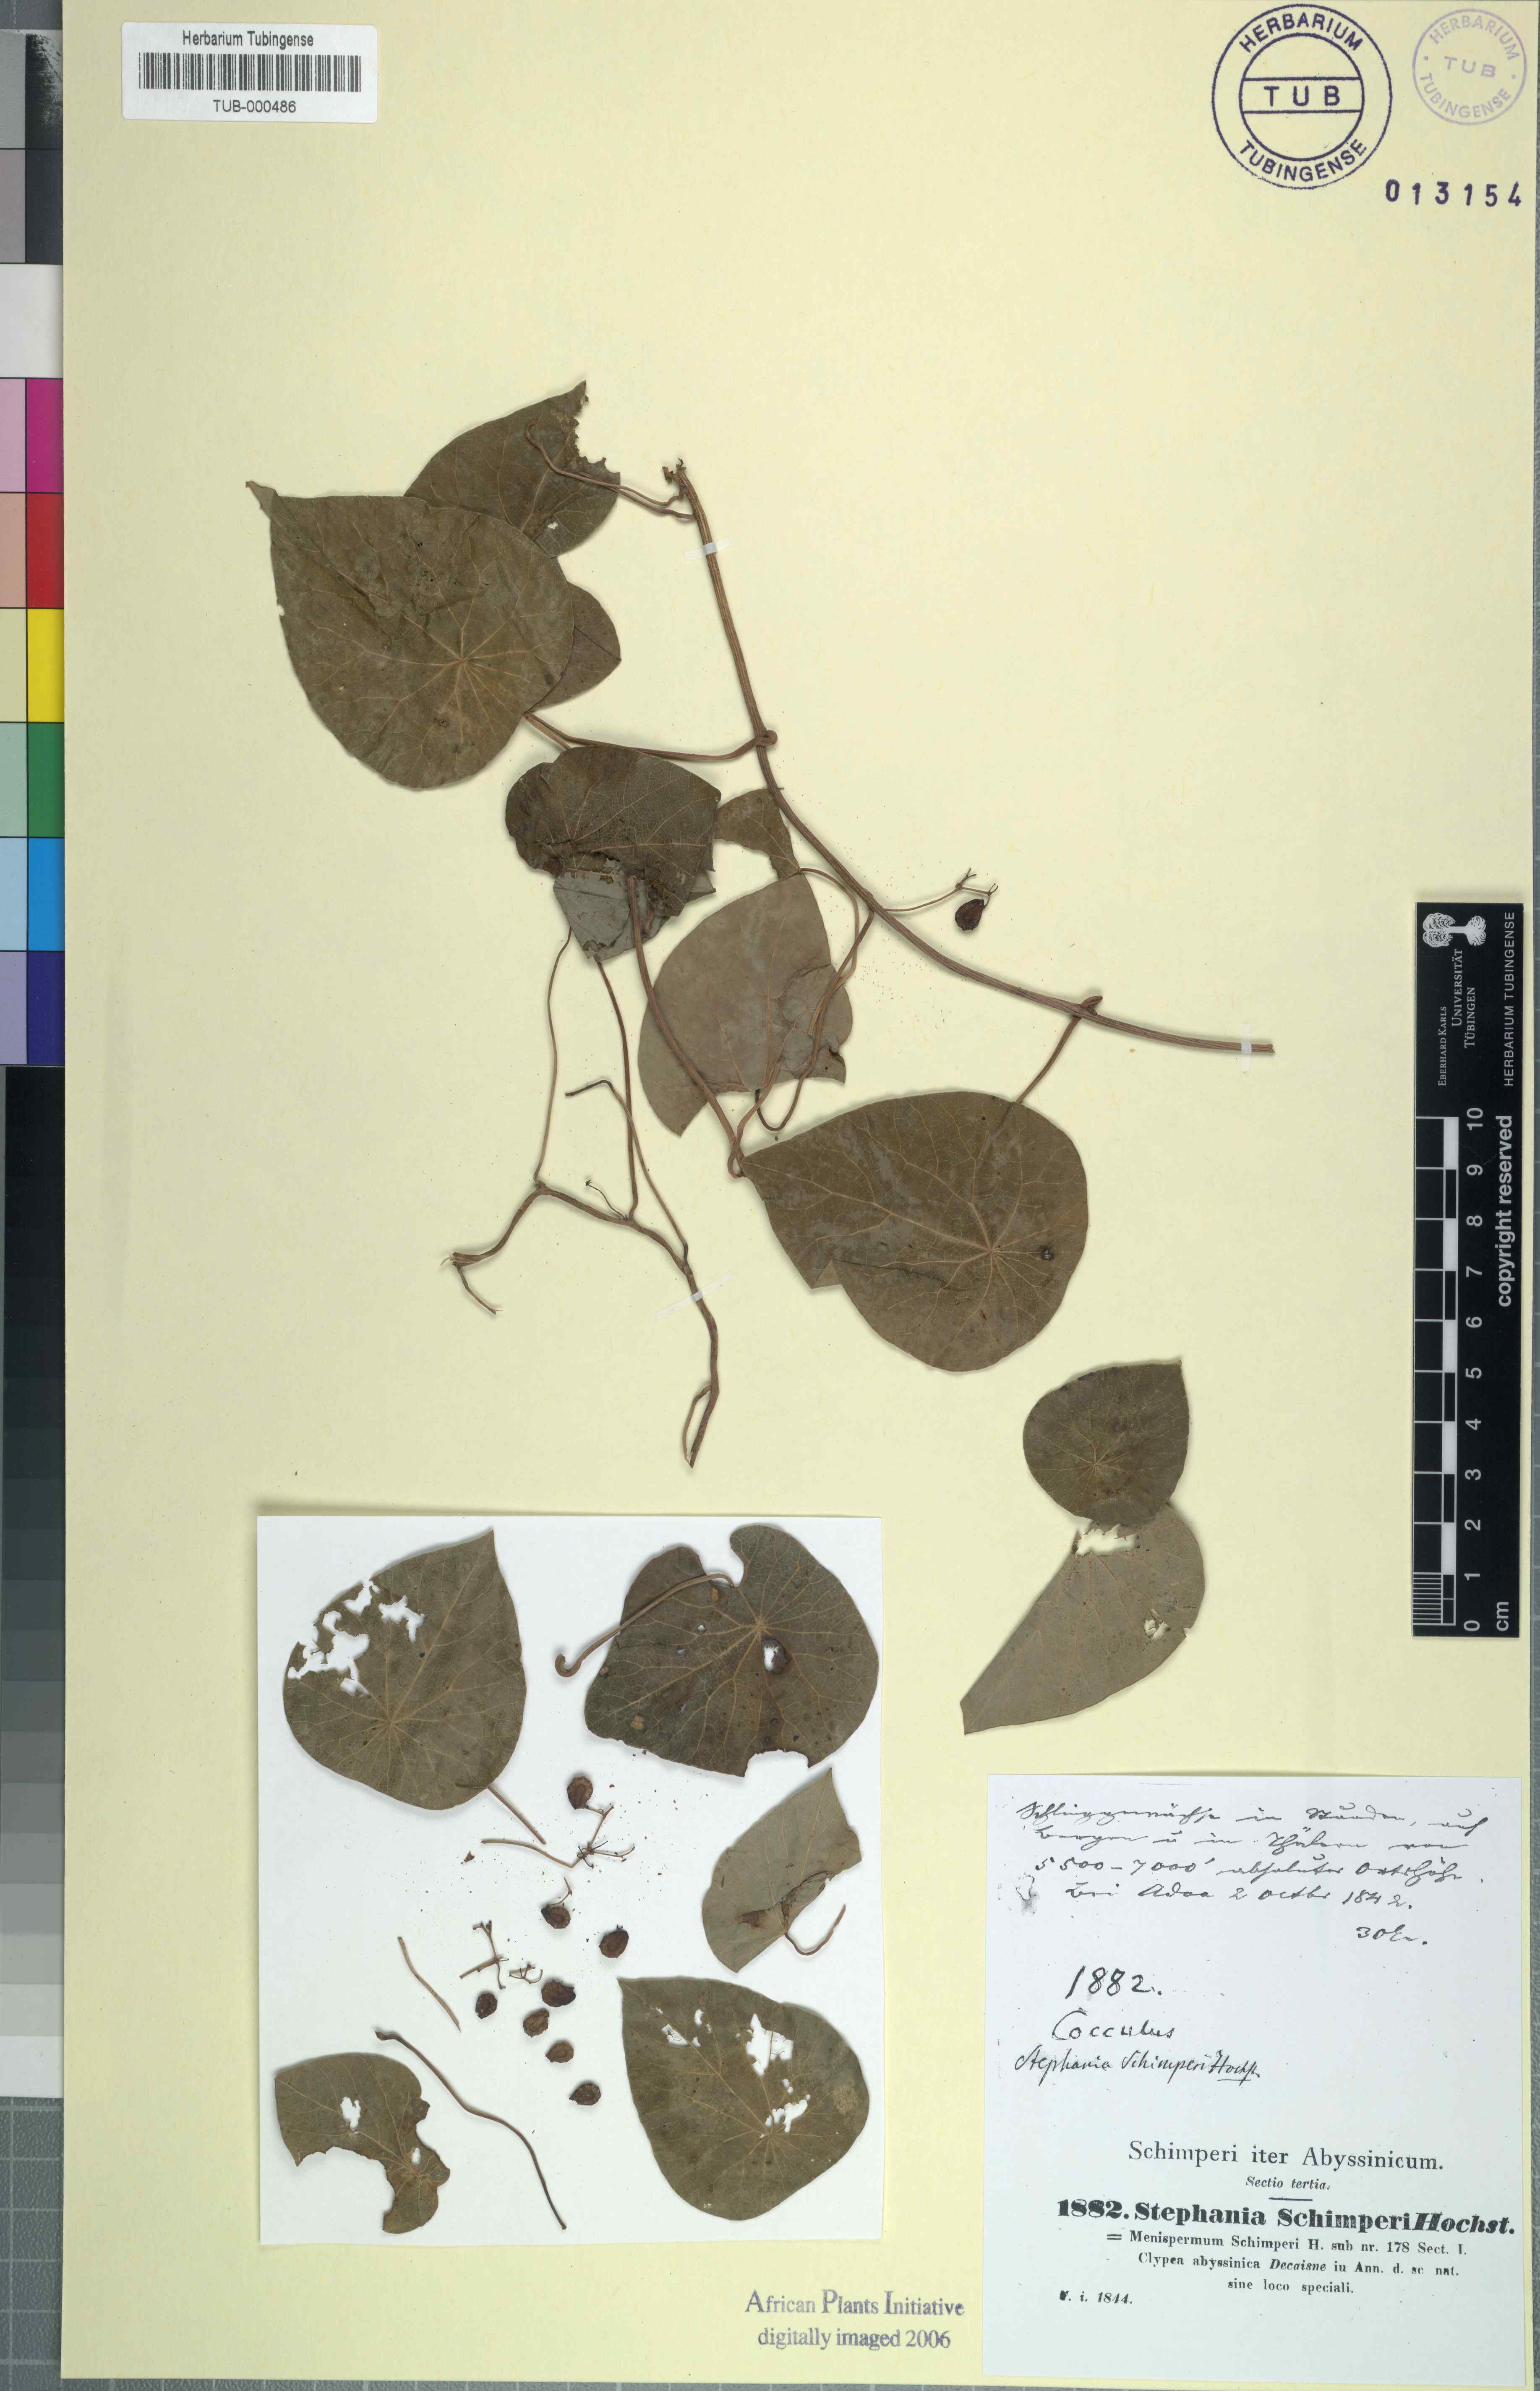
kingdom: Plantae
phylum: Tracheophyta
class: Magnoliopsida
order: Ranunculales
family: Menispermaceae
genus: Stephania
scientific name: Stephania abyssinica
